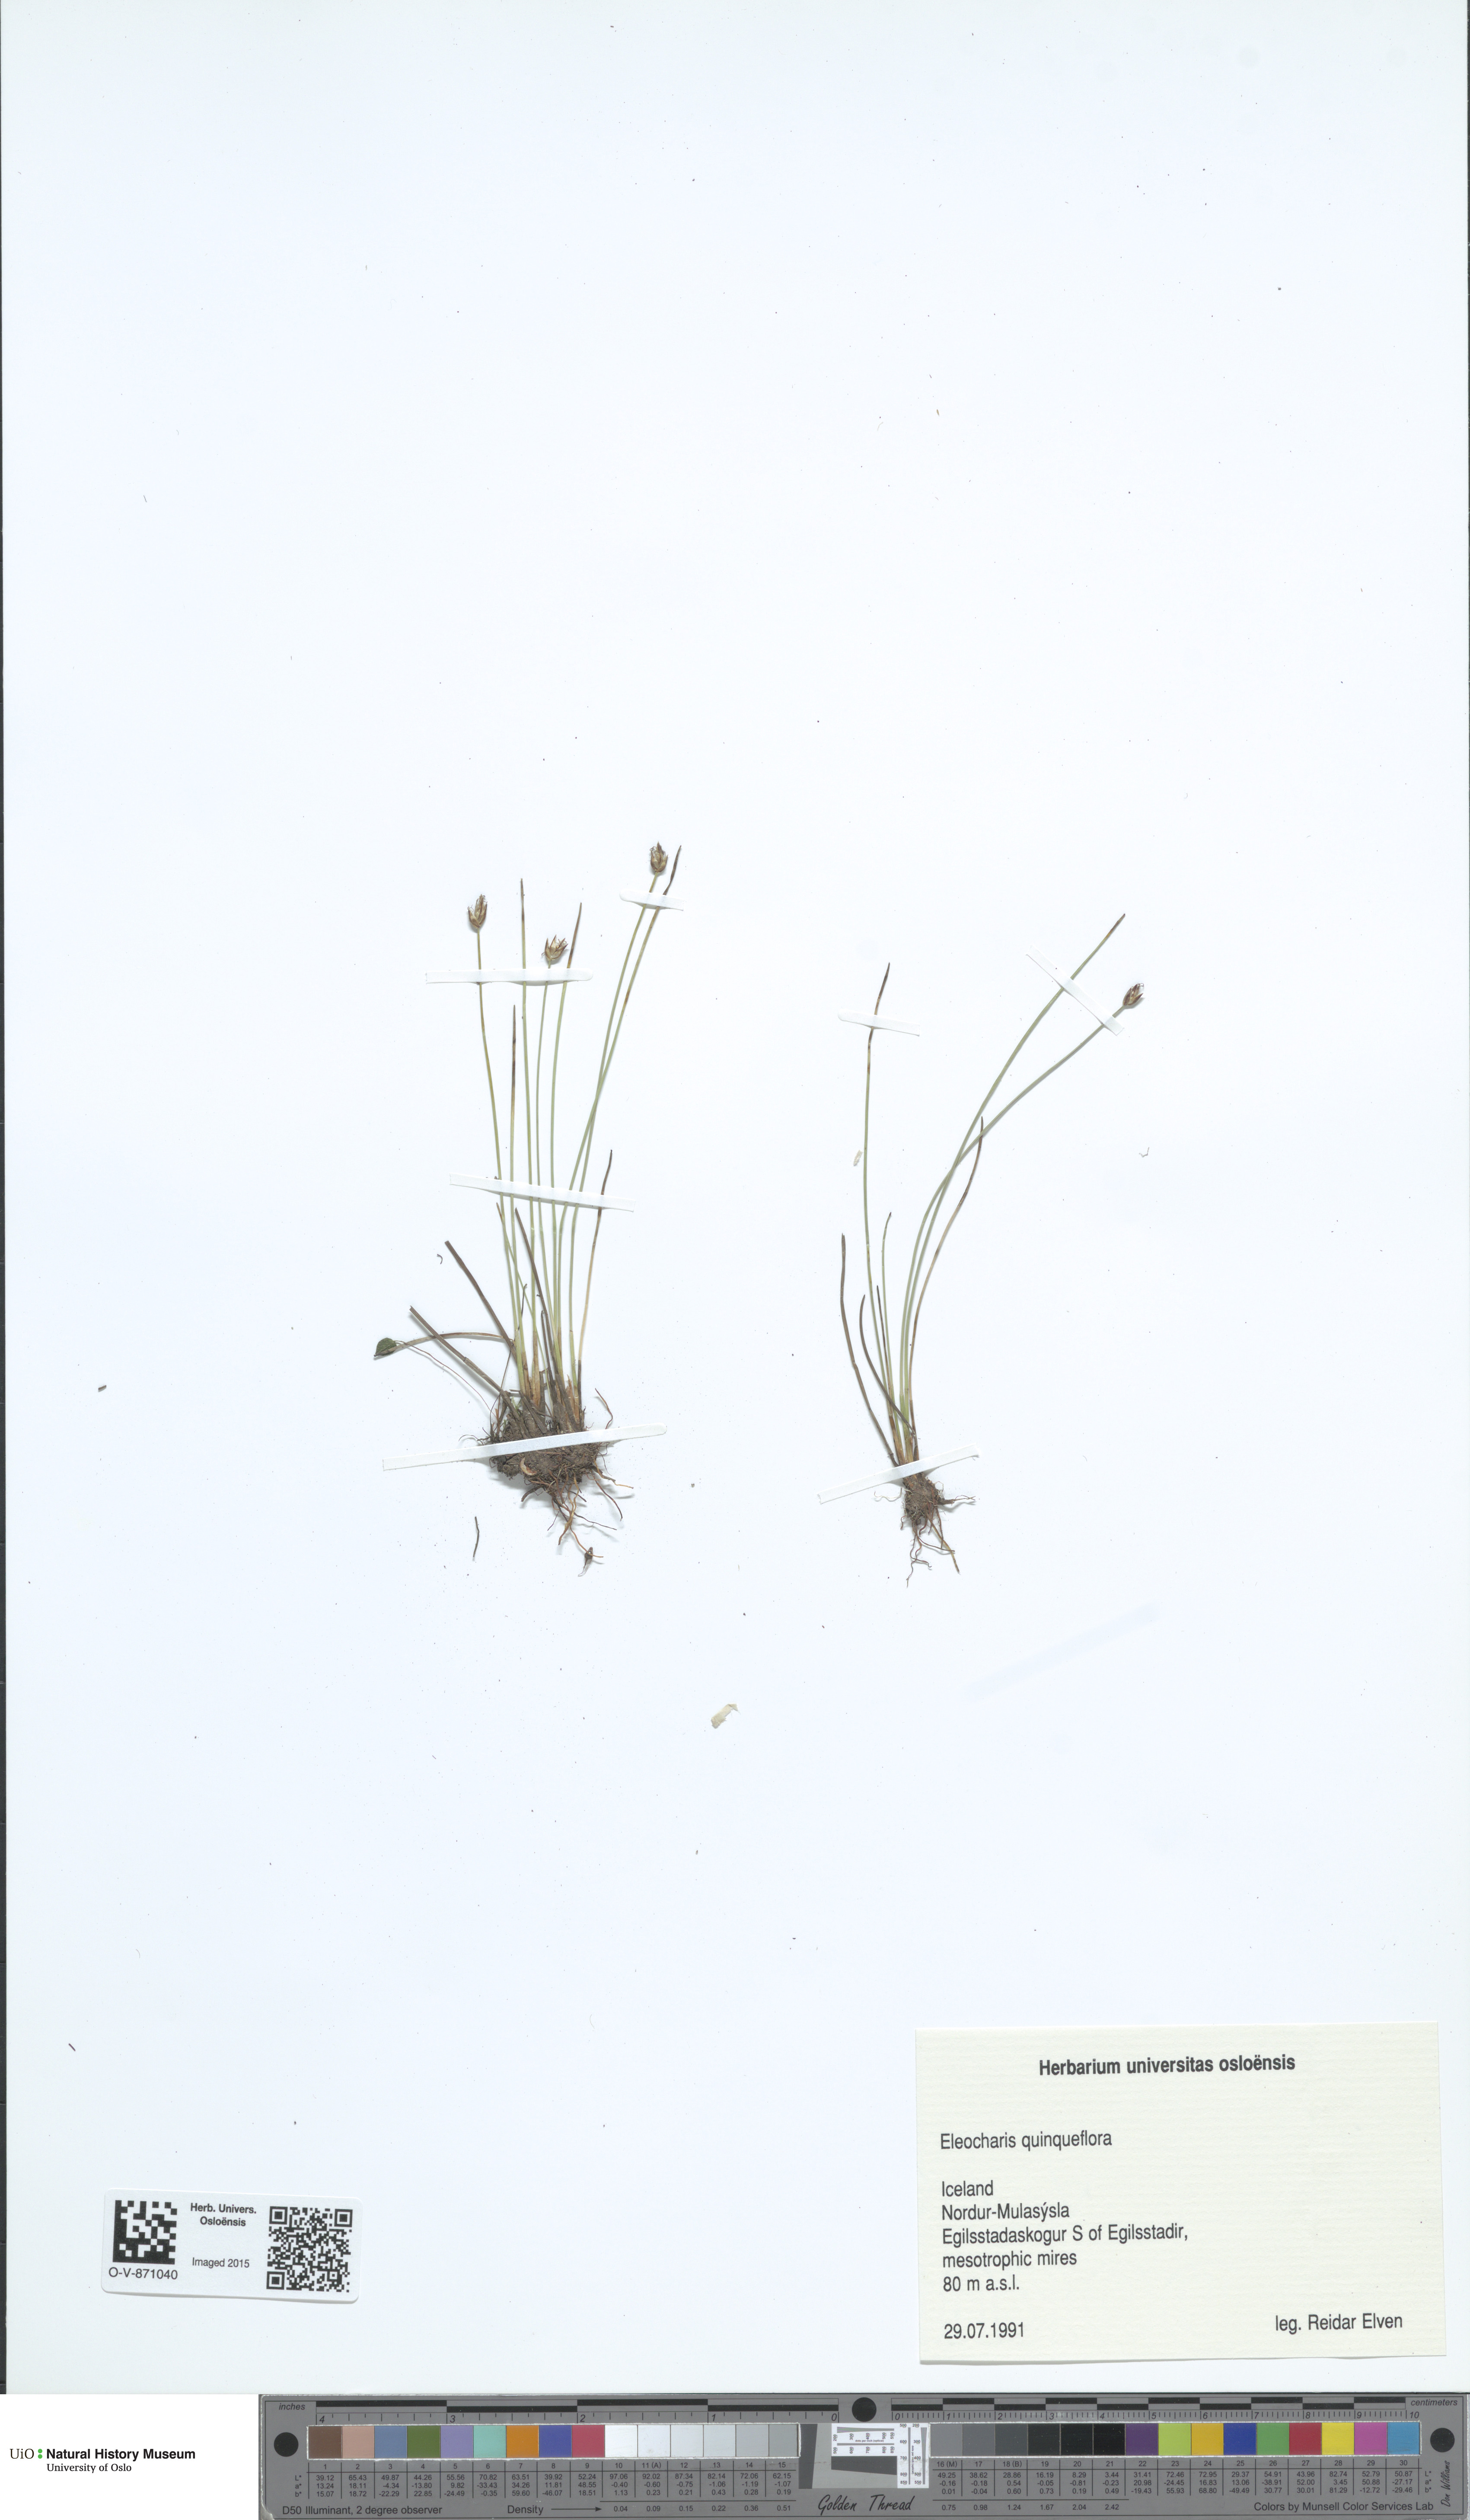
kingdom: Plantae
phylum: Tracheophyta
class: Liliopsida
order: Poales
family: Cyperaceae
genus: Eleocharis
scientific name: Eleocharis quinqueflora
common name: Few-flowered spike-rush
